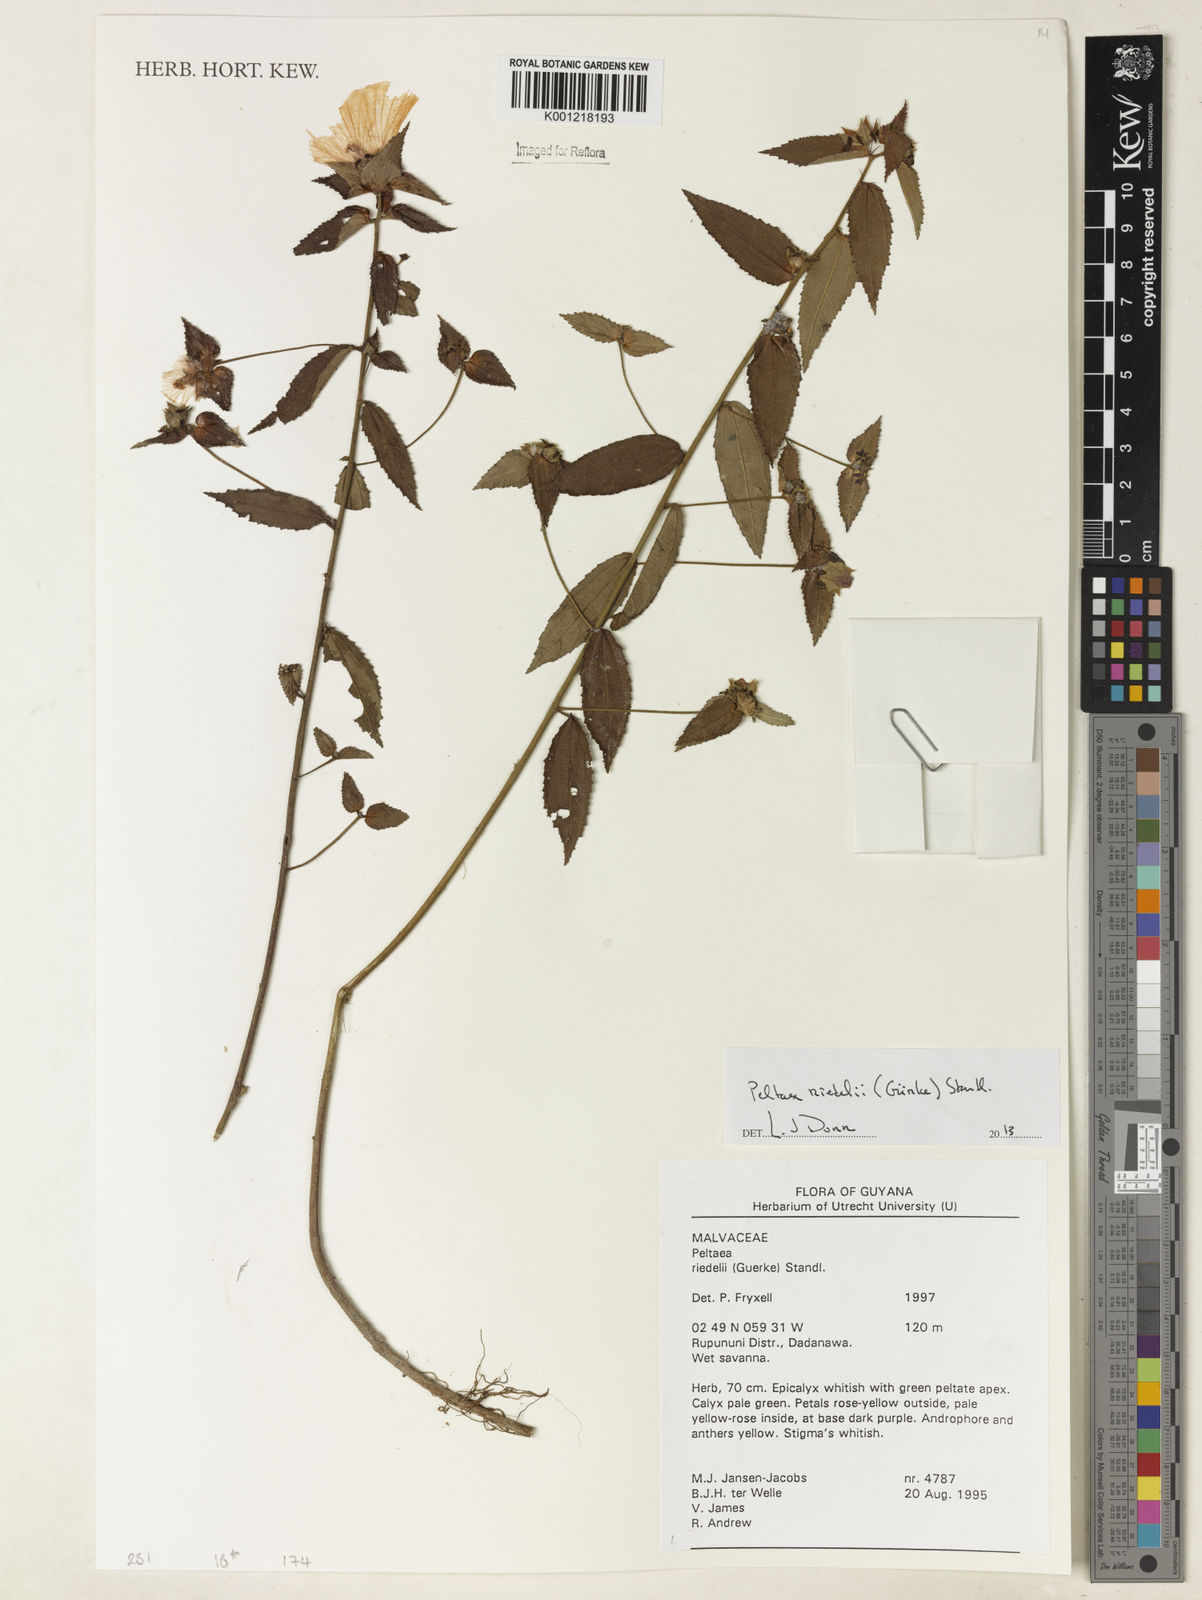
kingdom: Plantae
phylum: Tracheophyta
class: Magnoliopsida
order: Malvales
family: Malvaceae
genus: Peltaea
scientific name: Peltaea
